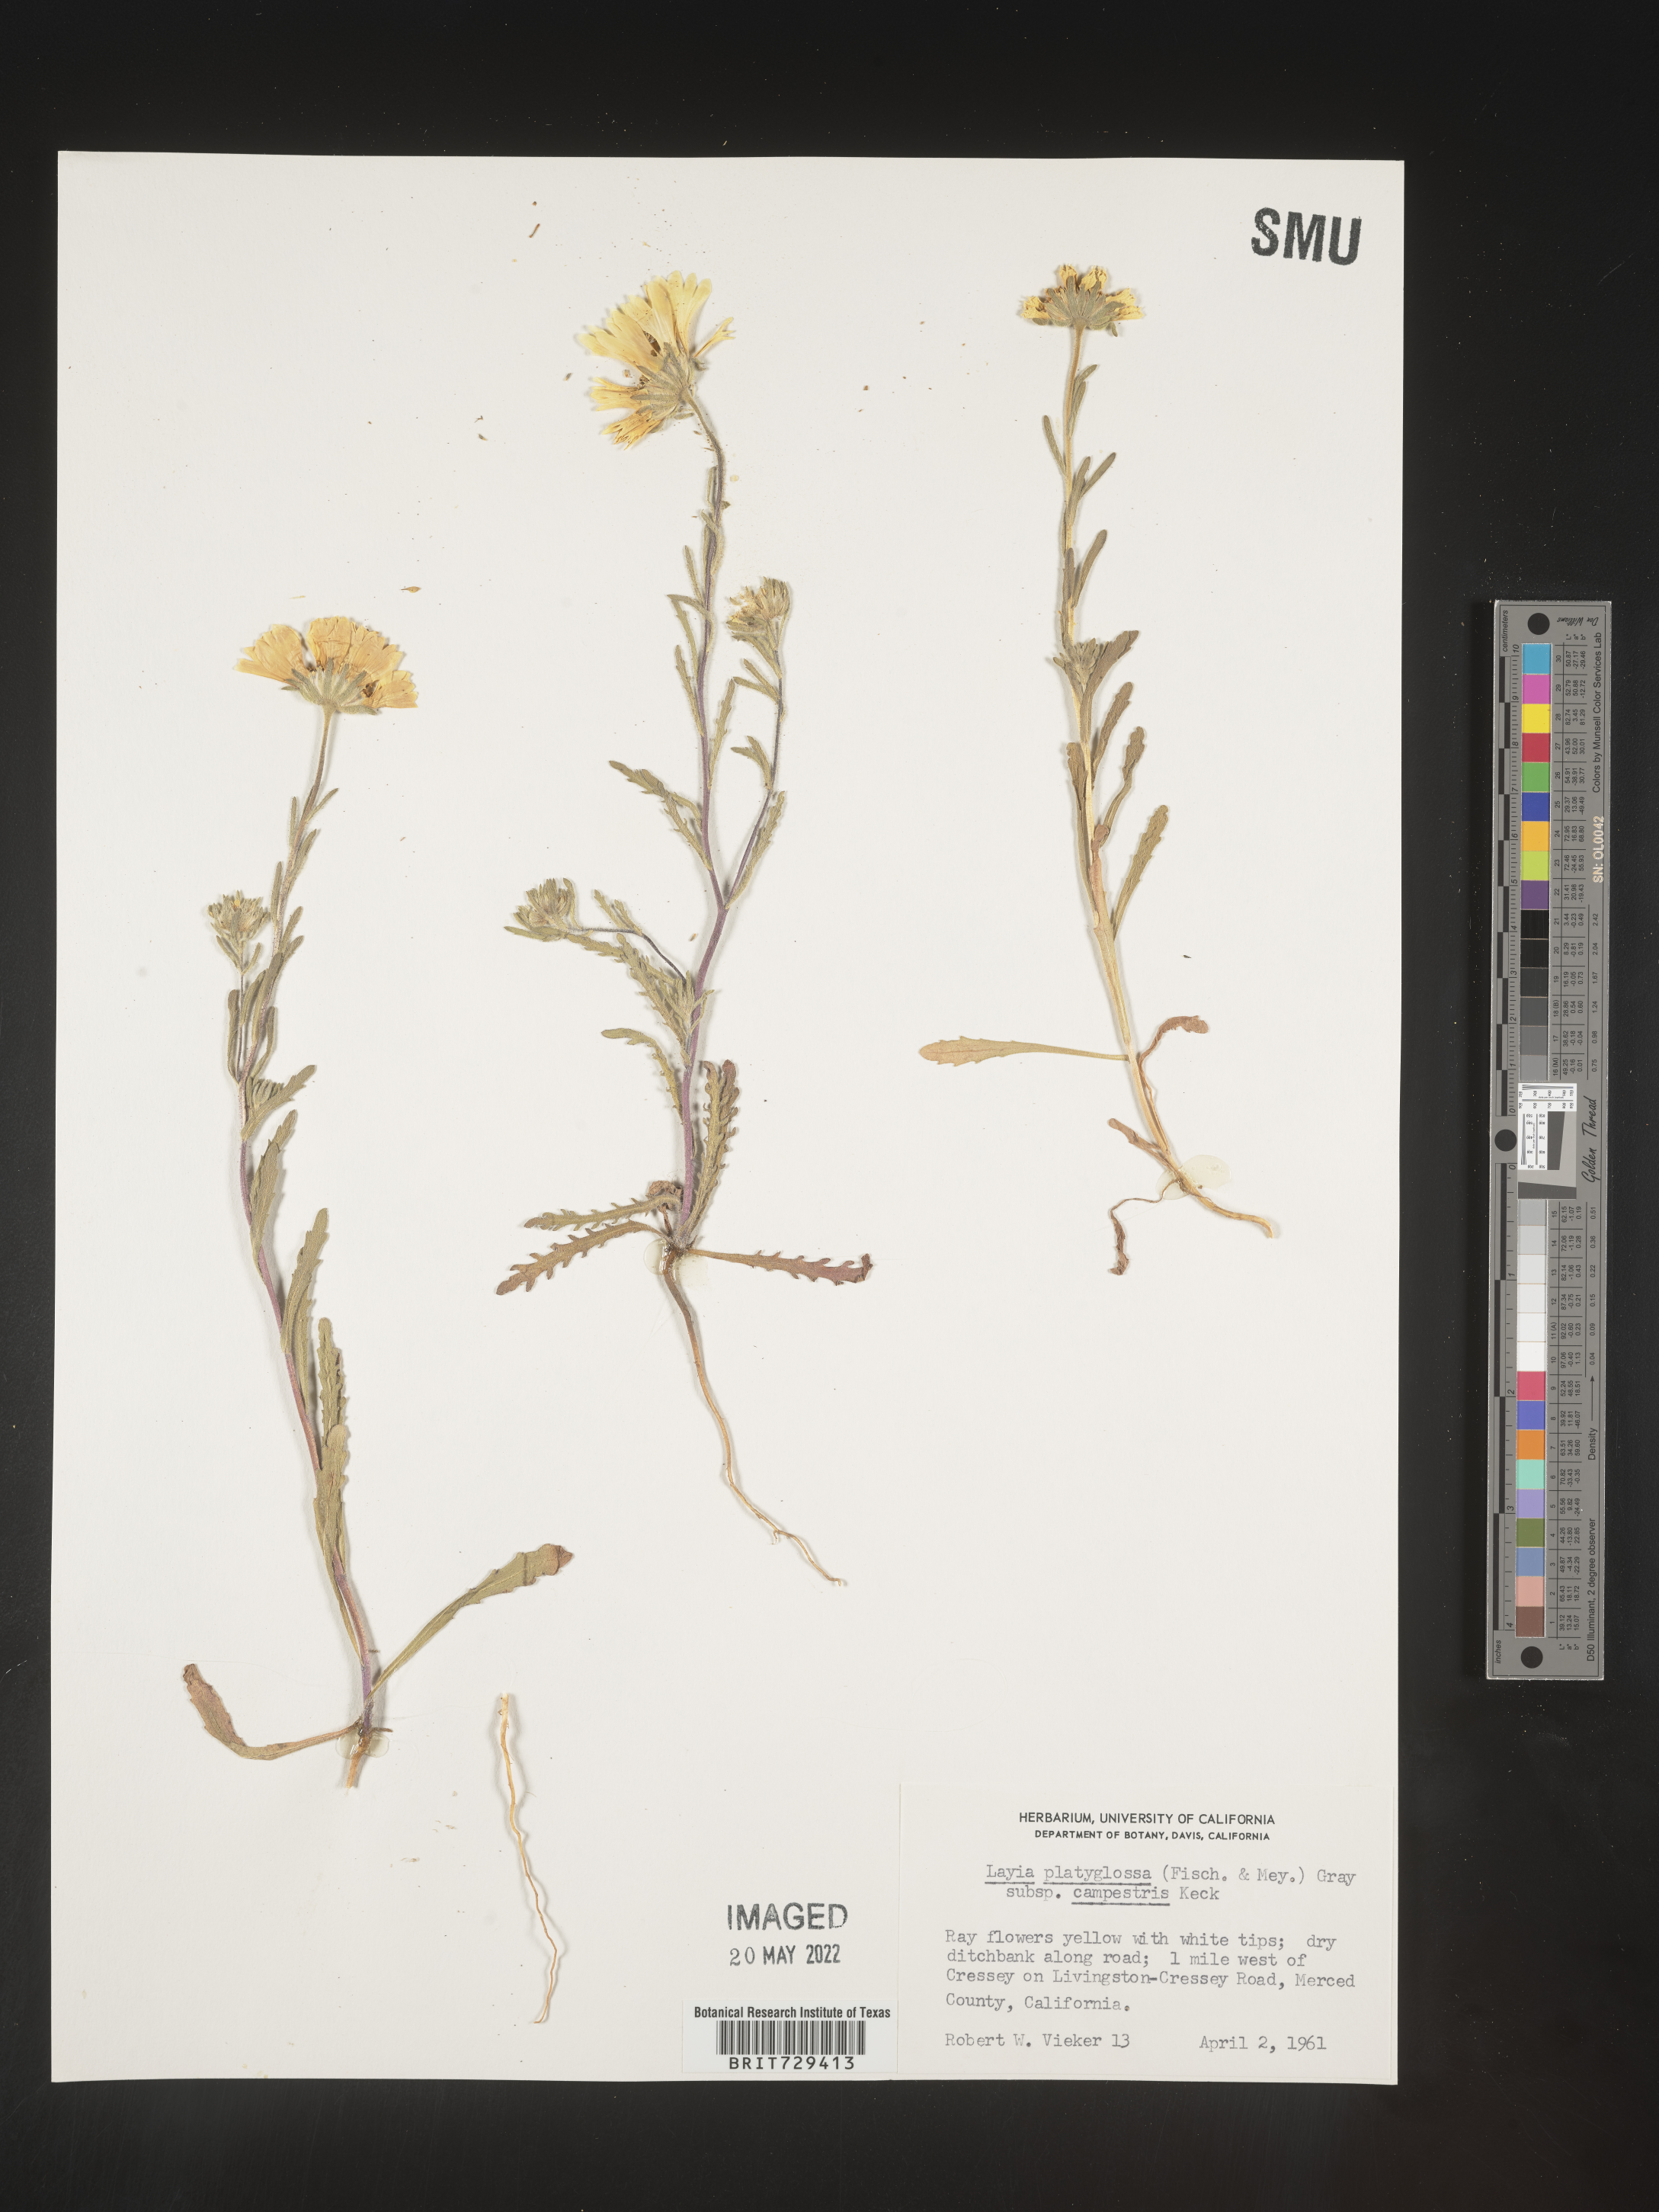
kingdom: Plantae
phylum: Tracheophyta
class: Magnoliopsida
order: Asterales
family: Asteraceae
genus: Layia
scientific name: Layia
